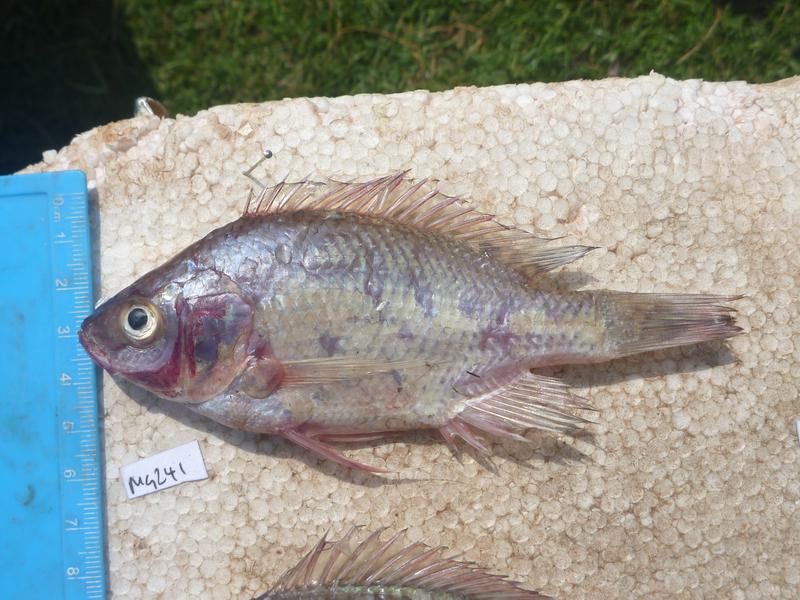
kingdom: Animalia
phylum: Chordata
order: Perciformes
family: Cichlidae
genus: Oreochromis
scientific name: Oreochromis esculentus
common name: Carp
